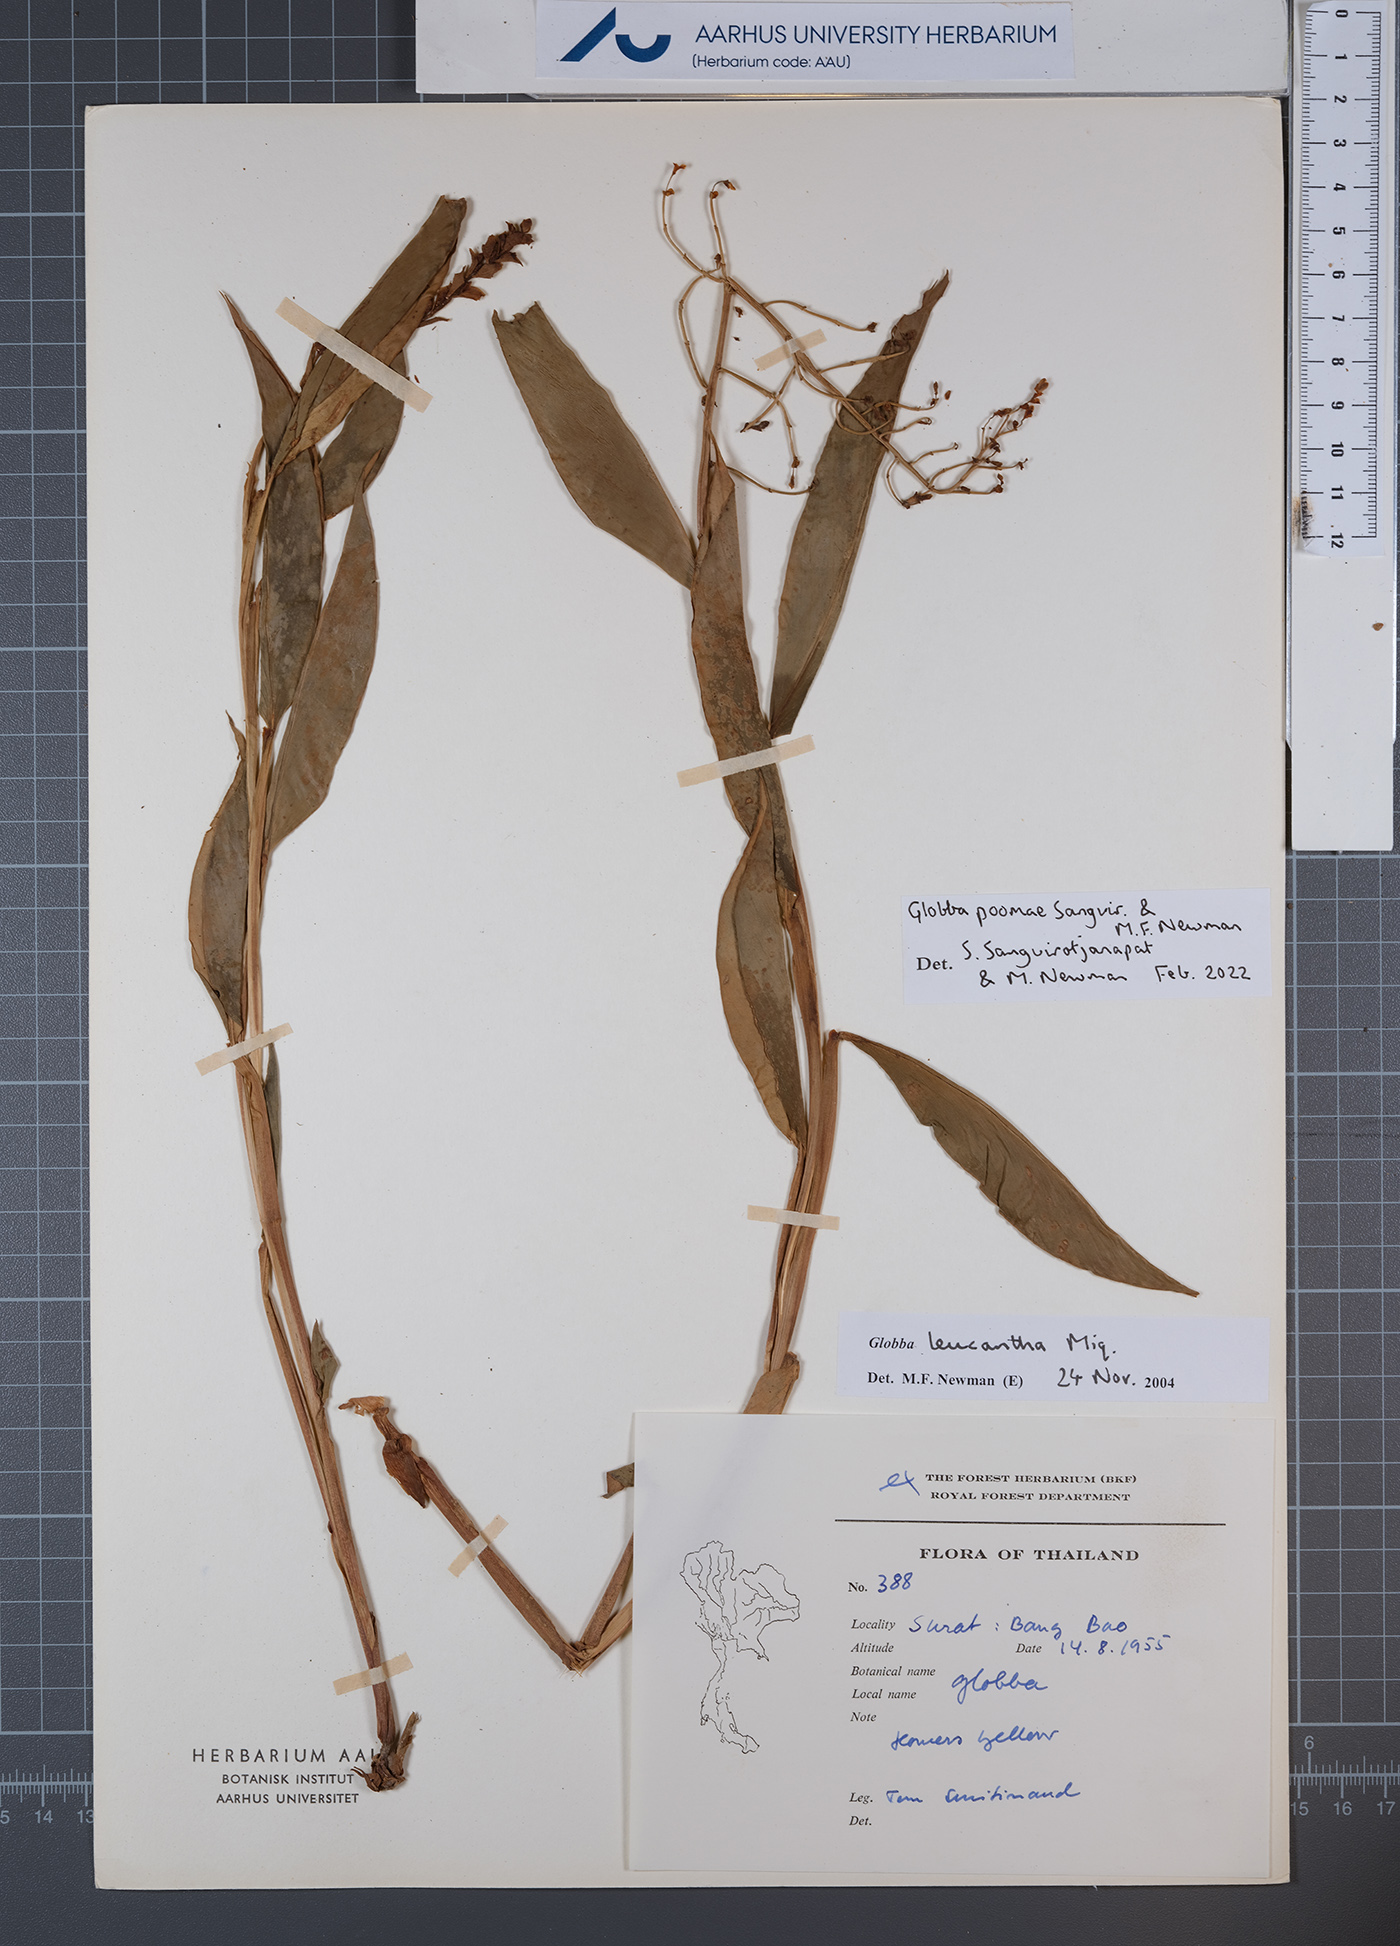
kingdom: Plantae
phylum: Tracheophyta
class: Liliopsida
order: Zingiberales
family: Zingiberaceae
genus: Globba
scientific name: Globba poomae
